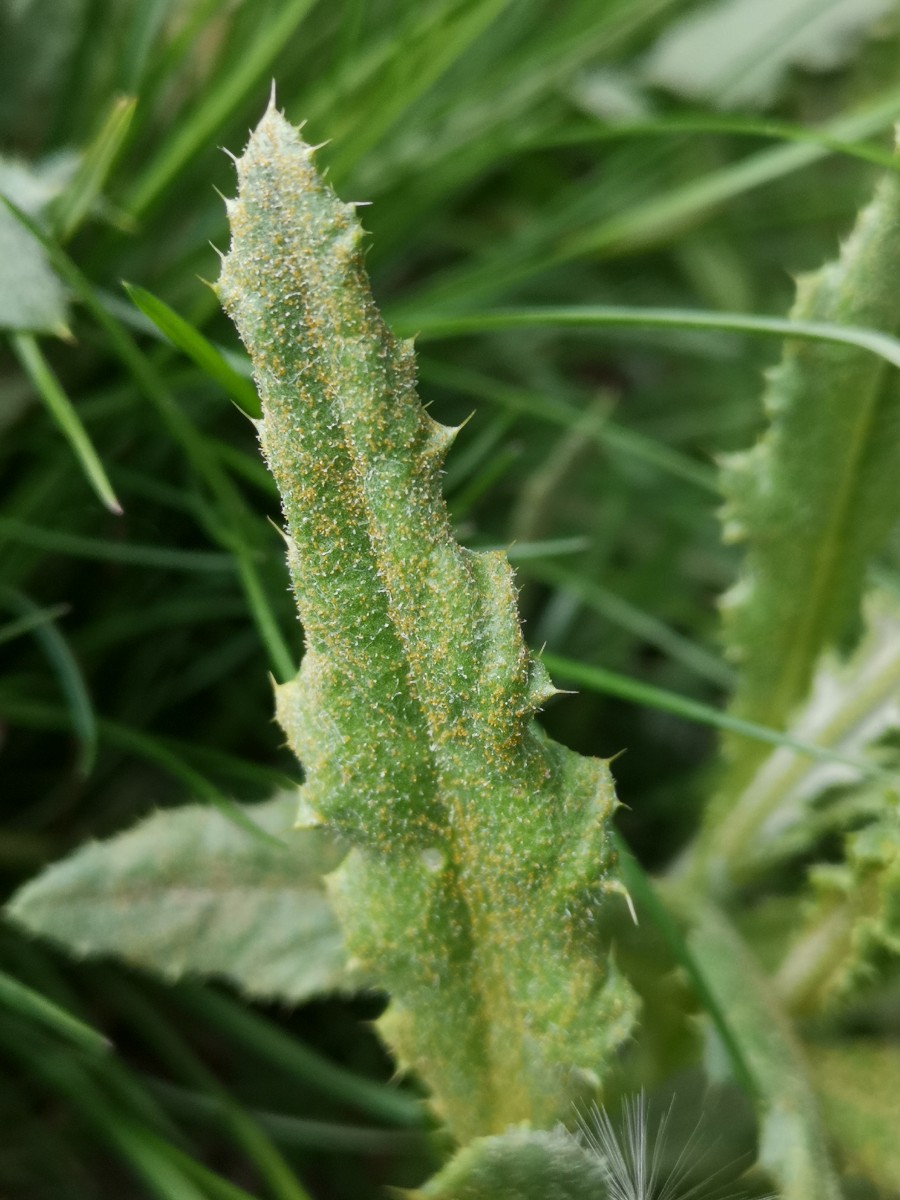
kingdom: Fungi
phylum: Basidiomycota
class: Pucciniomycetes
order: Pucciniales
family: Pucciniaceae
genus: Puccinia
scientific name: Puccinia suaveolens
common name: tidsel-tvecellerust
